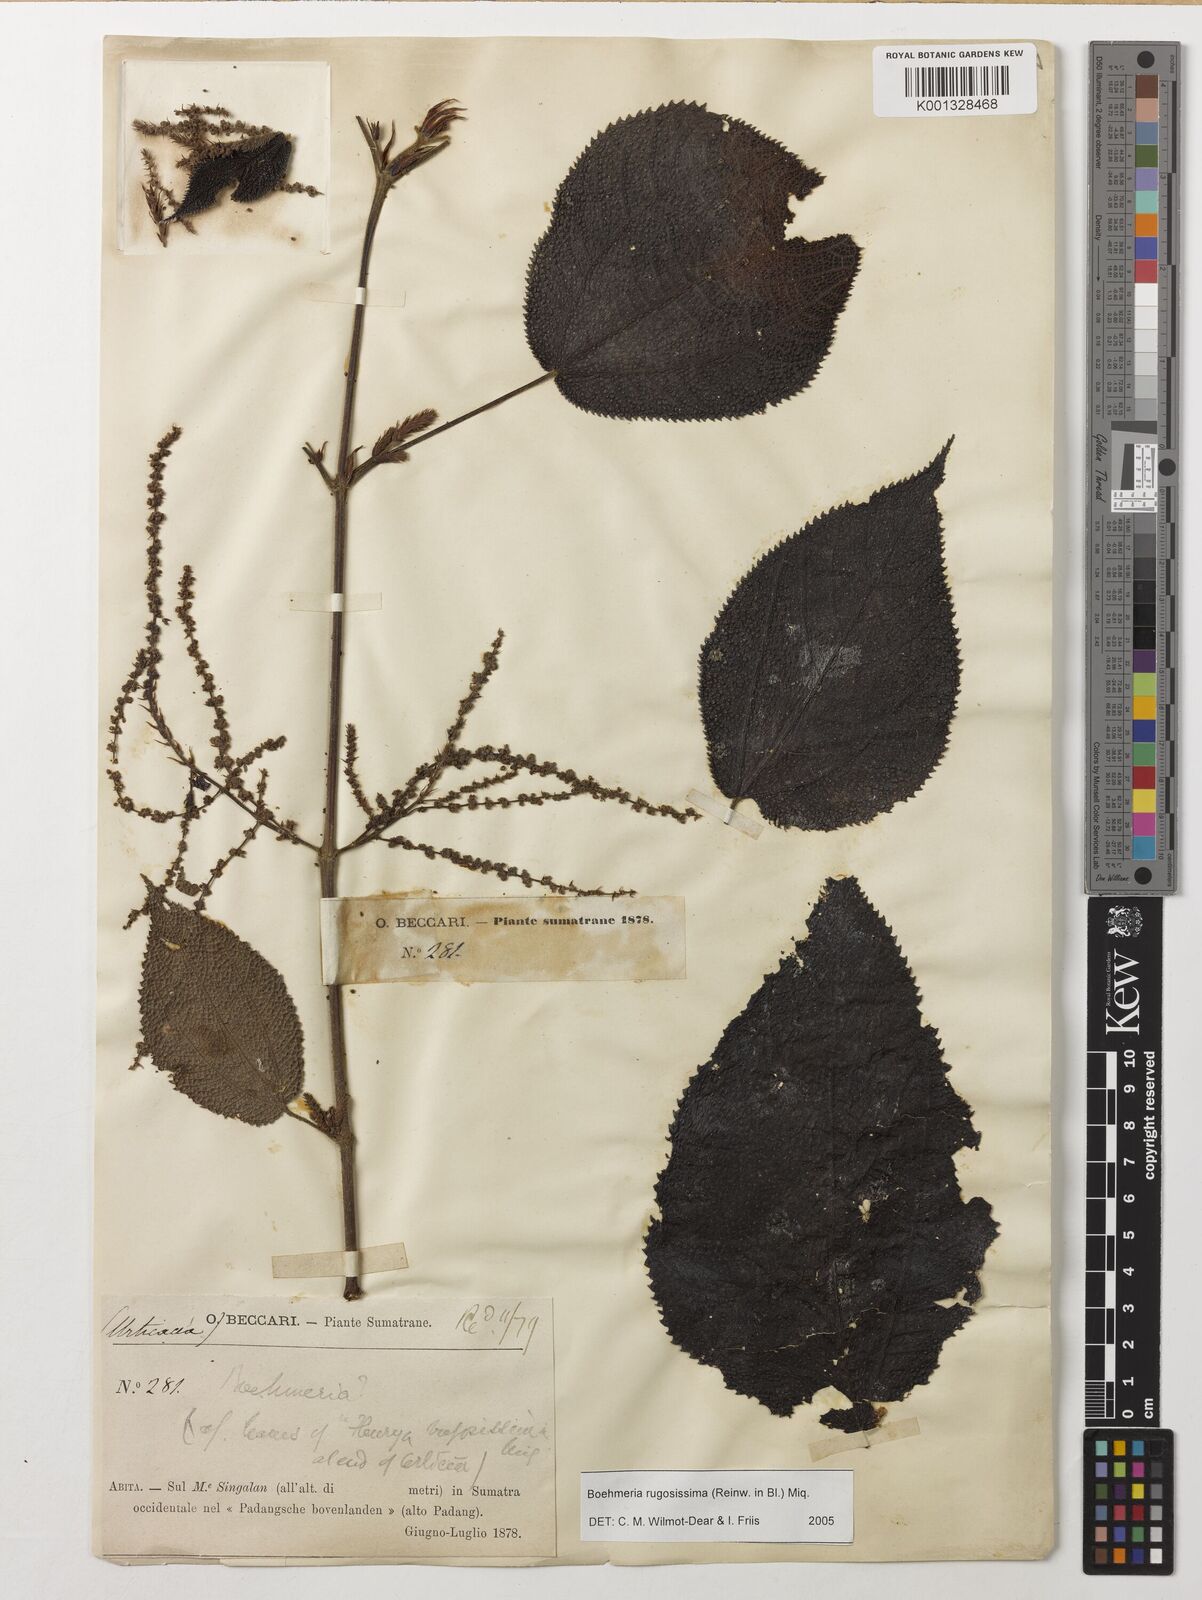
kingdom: Plantae
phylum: Tracheophyta
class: Magnoliopsida
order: Rosales
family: Urticaceae
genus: Boehmeria
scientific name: Boehmeria rugosissima
